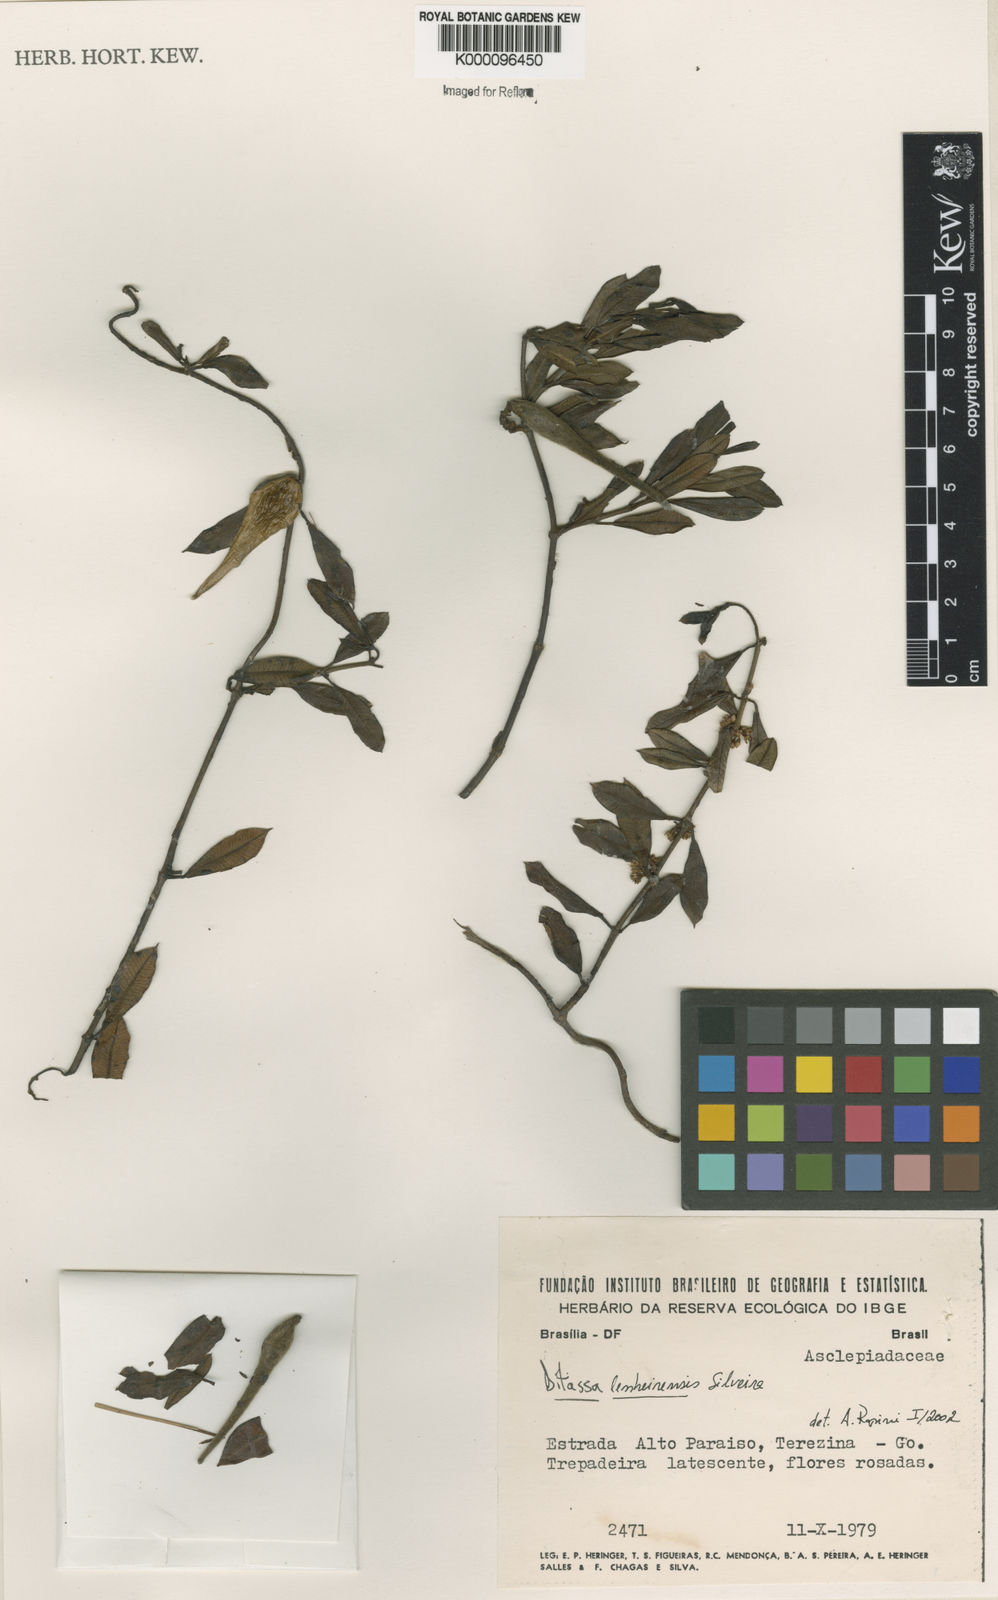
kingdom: Plantae
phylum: Tracheophyta
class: Magnoliopsida
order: Gentianales
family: Apocynaceae
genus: Ditassa
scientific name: Ditassa lenheirensis
